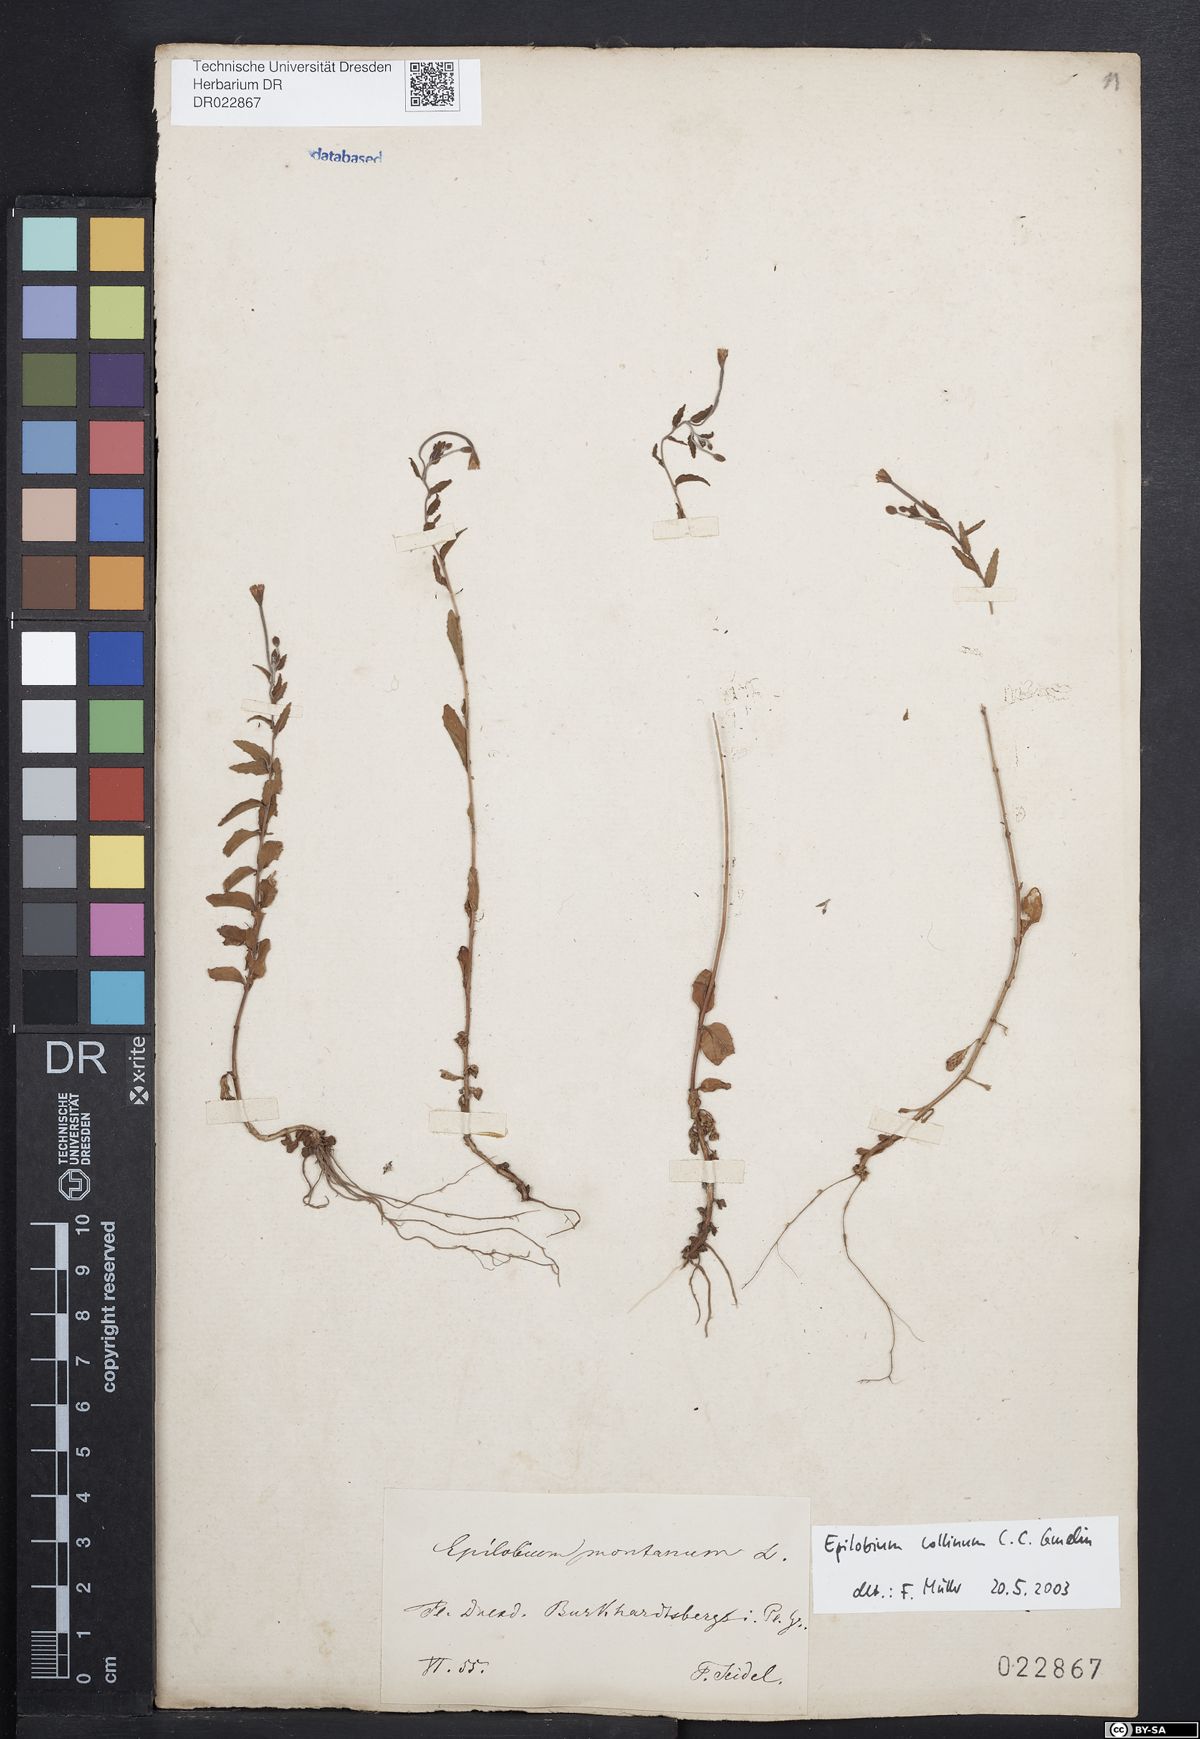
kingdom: Plantae
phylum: Tracheophyta
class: Magnoliopsida
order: Myrtales
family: Onagraceae
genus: Epilobium
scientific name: Epilobium collinum
